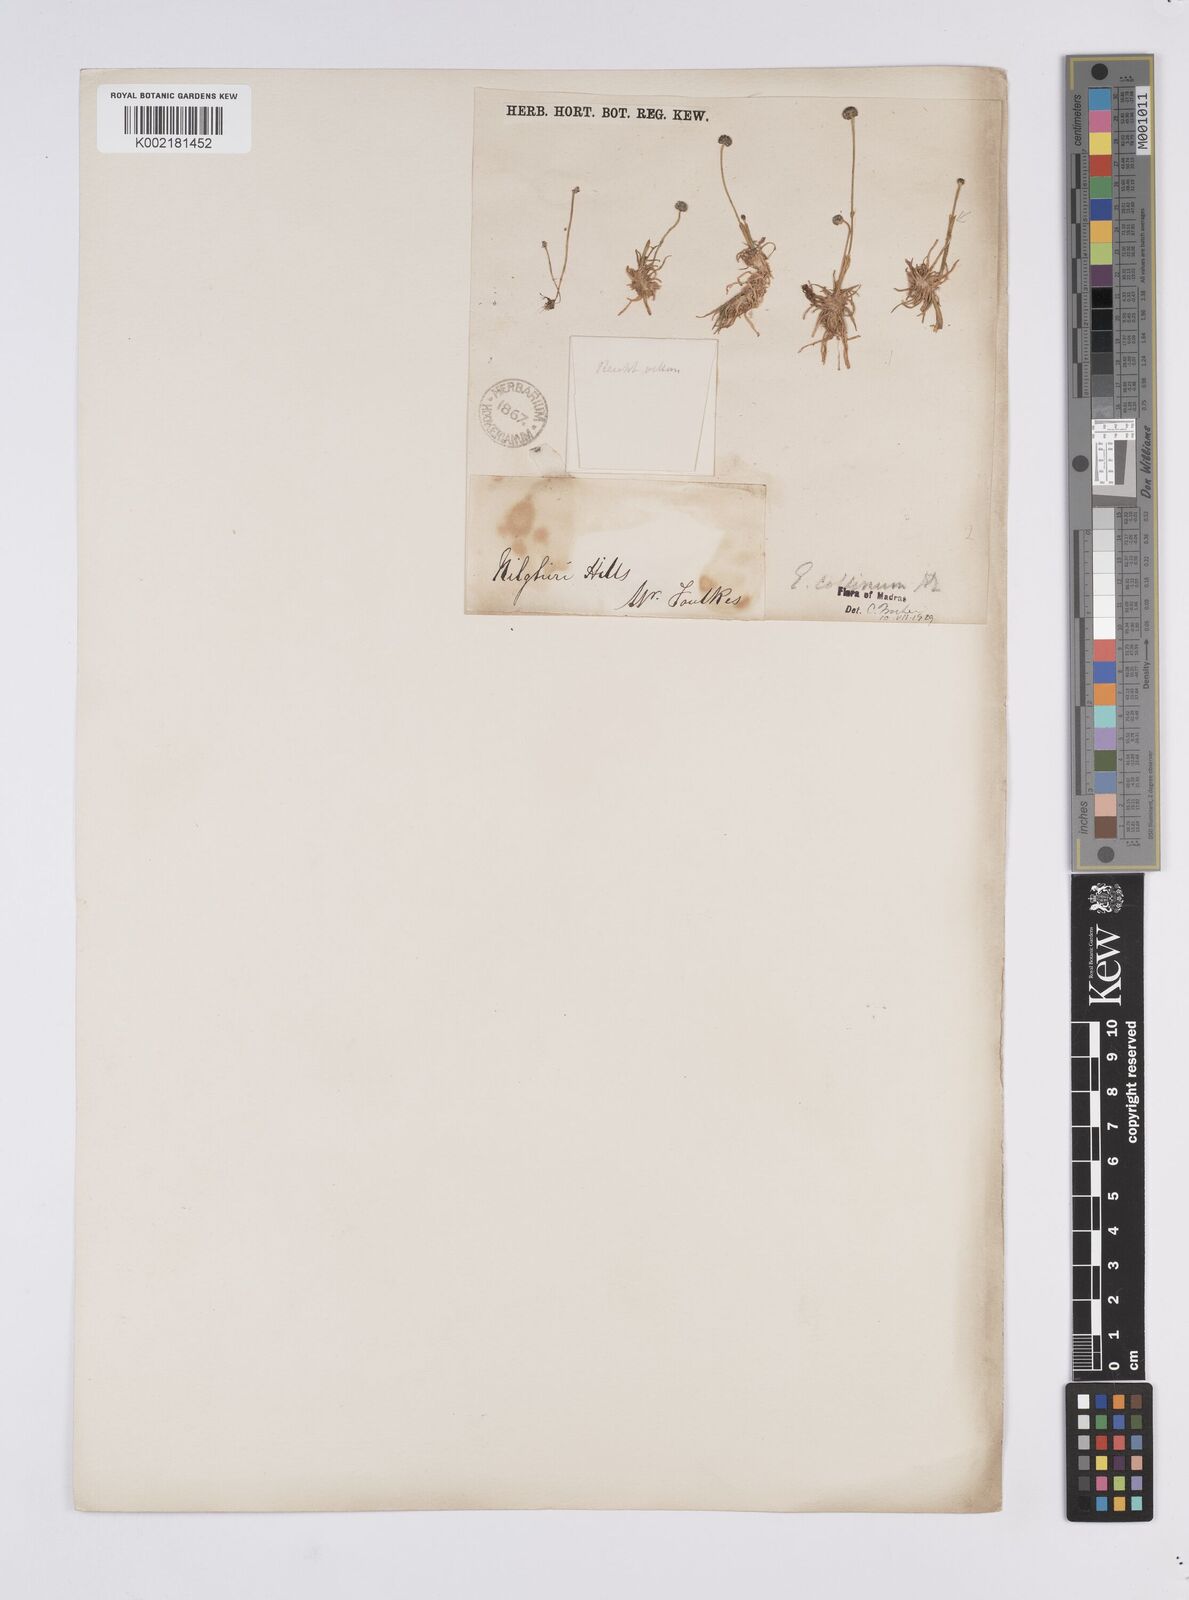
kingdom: Plantae
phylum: Tracheophyta
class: Liliopsida
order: Poales
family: Eriocaulaceae
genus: Eriocaulon
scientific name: Eriocaulon odoratum
